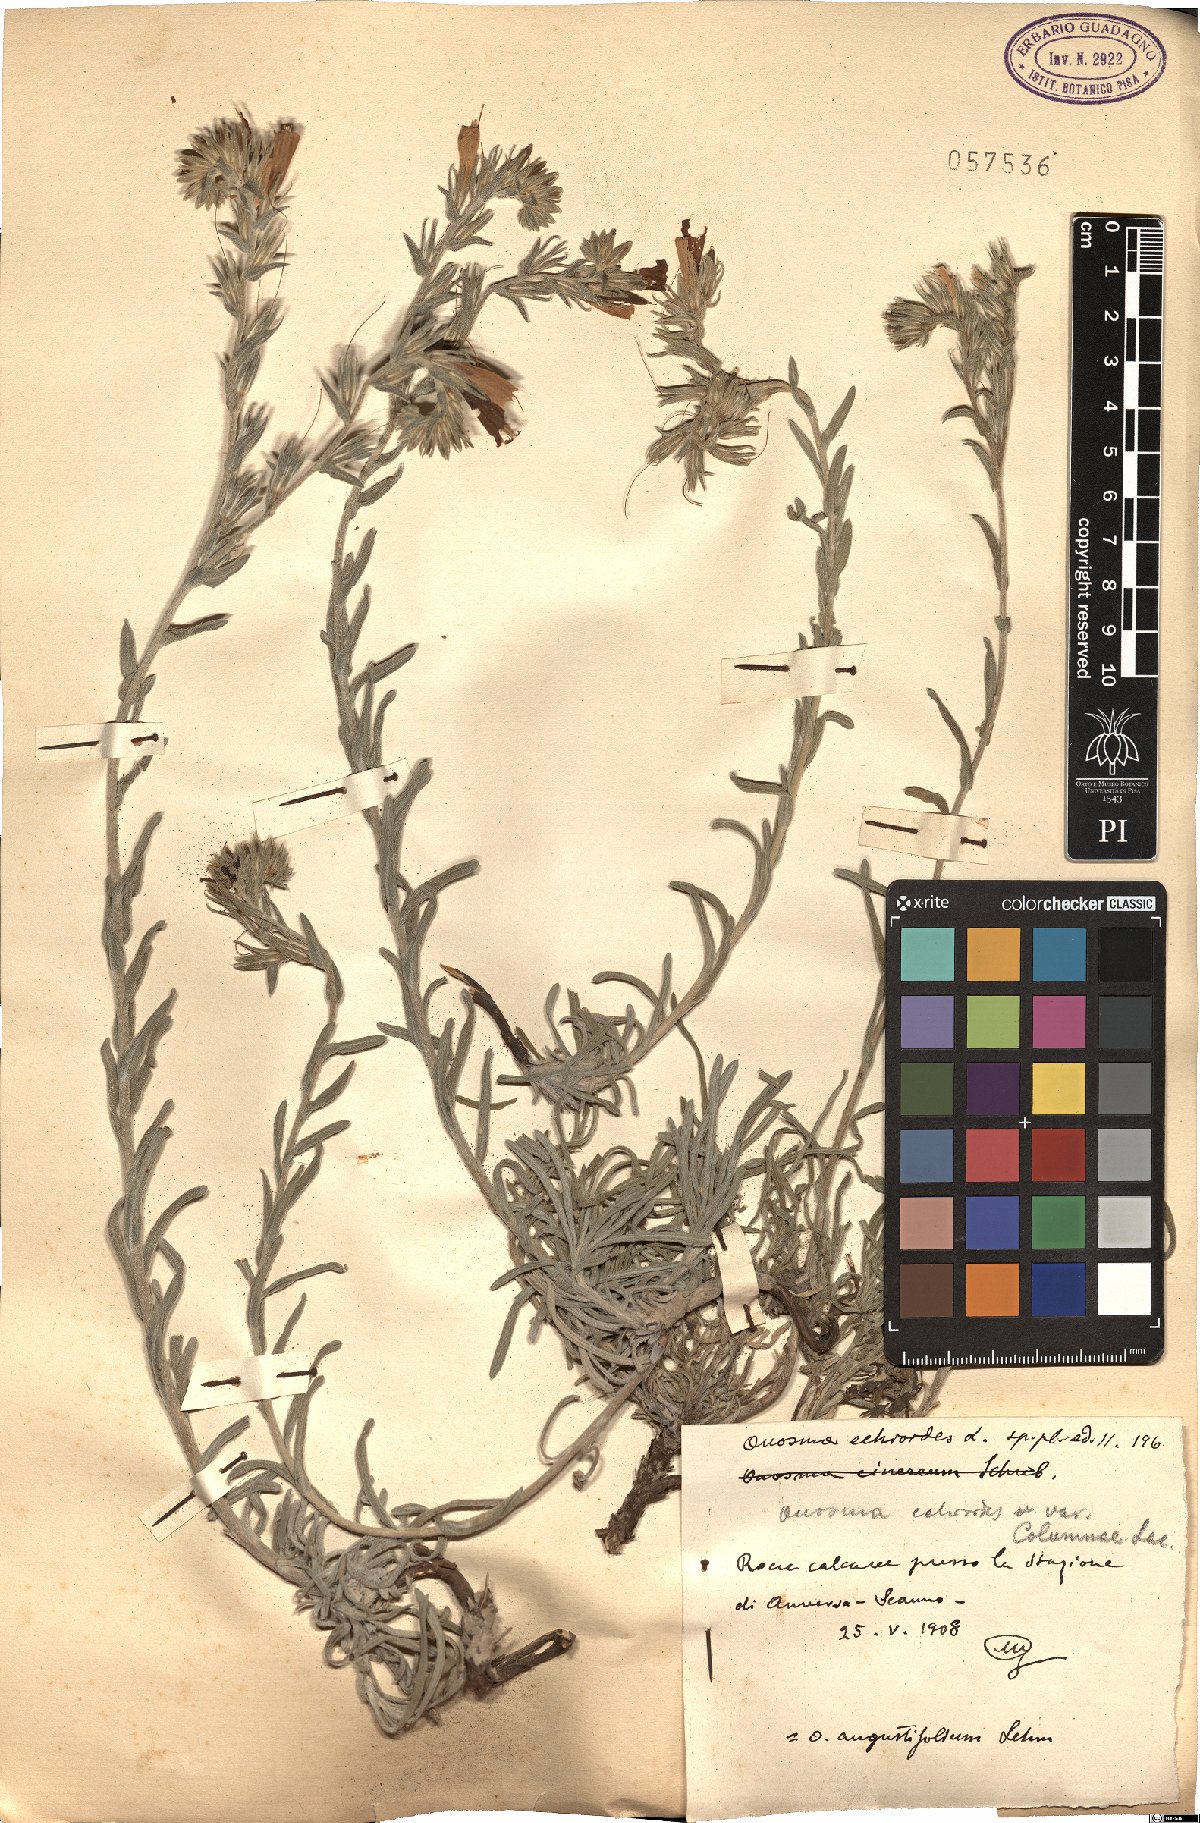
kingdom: Plantae
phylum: Tracheophyta
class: Magnoliopsida
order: Boraginales
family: Boraginaceae
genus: Onosma
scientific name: Onosma echioides
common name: Goldendrop
